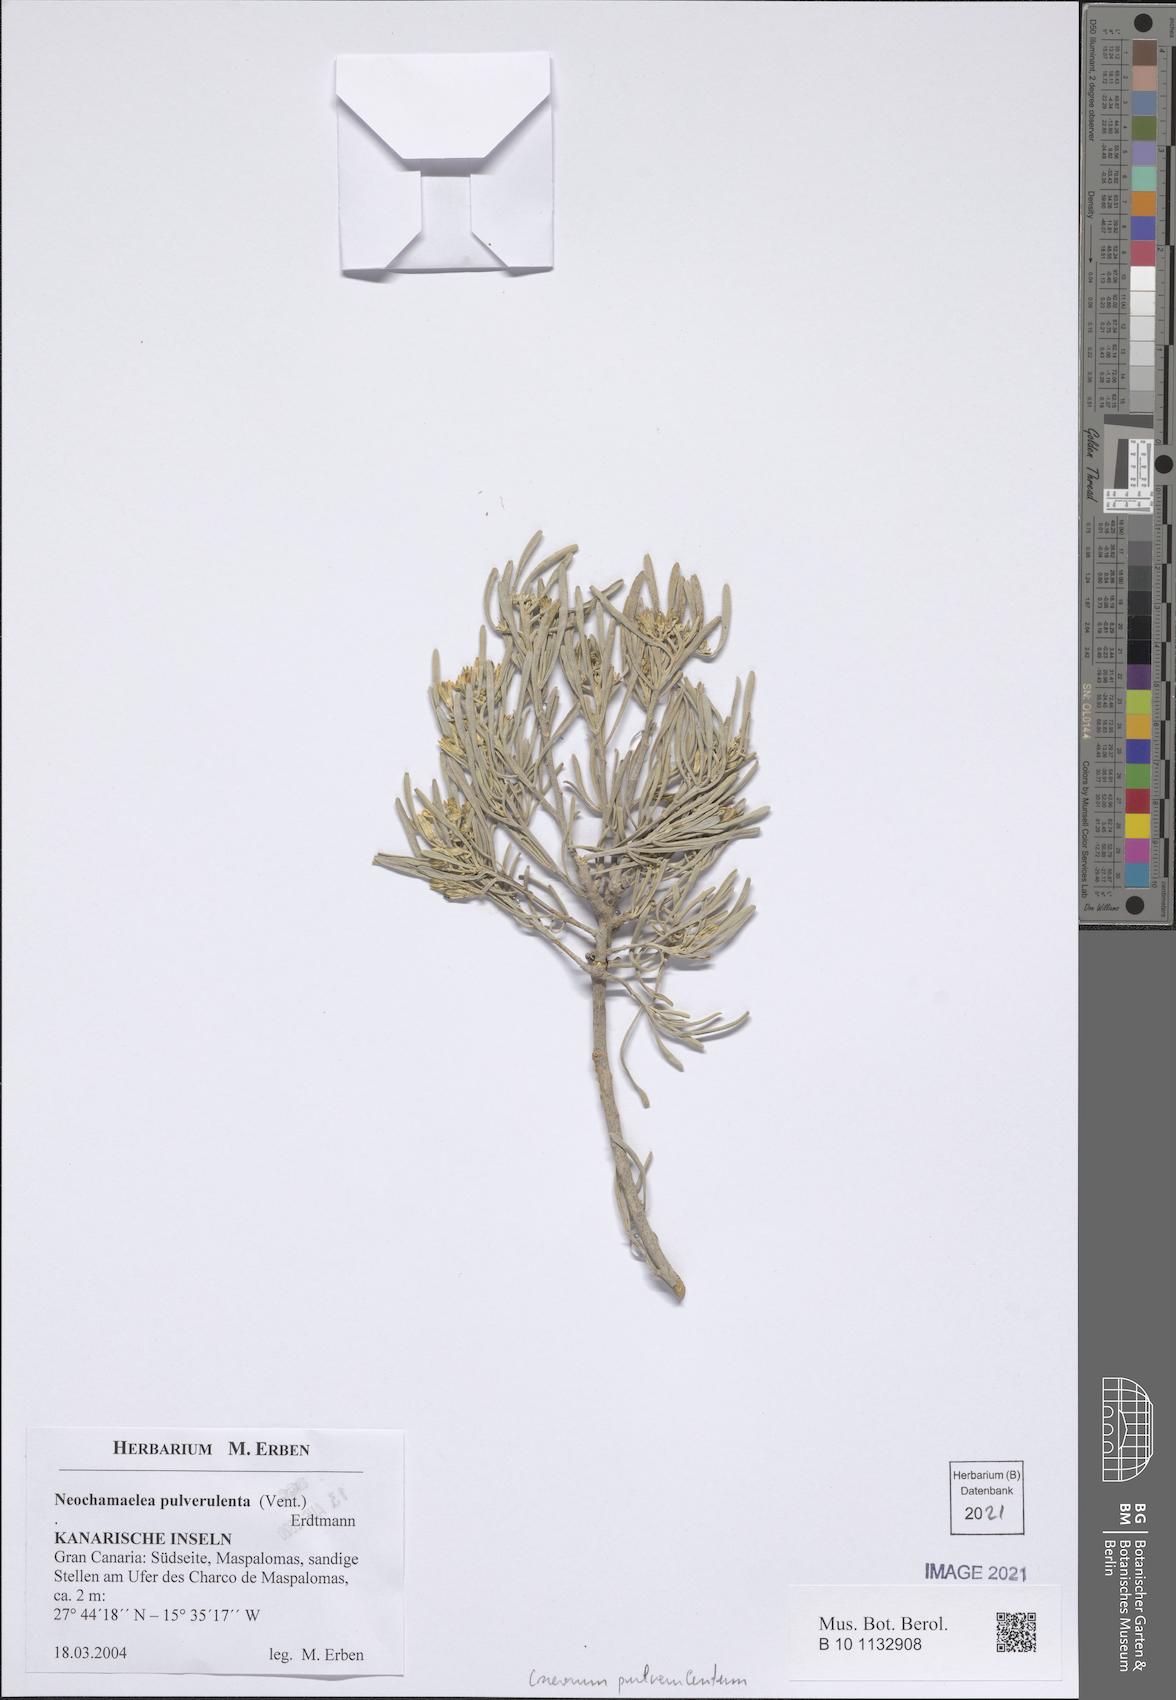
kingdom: Plantae
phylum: Tracheophyta
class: Magnoliopsida
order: Sapindales
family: Rutaceae
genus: Cneorum
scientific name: Cneorum pulverulentum
